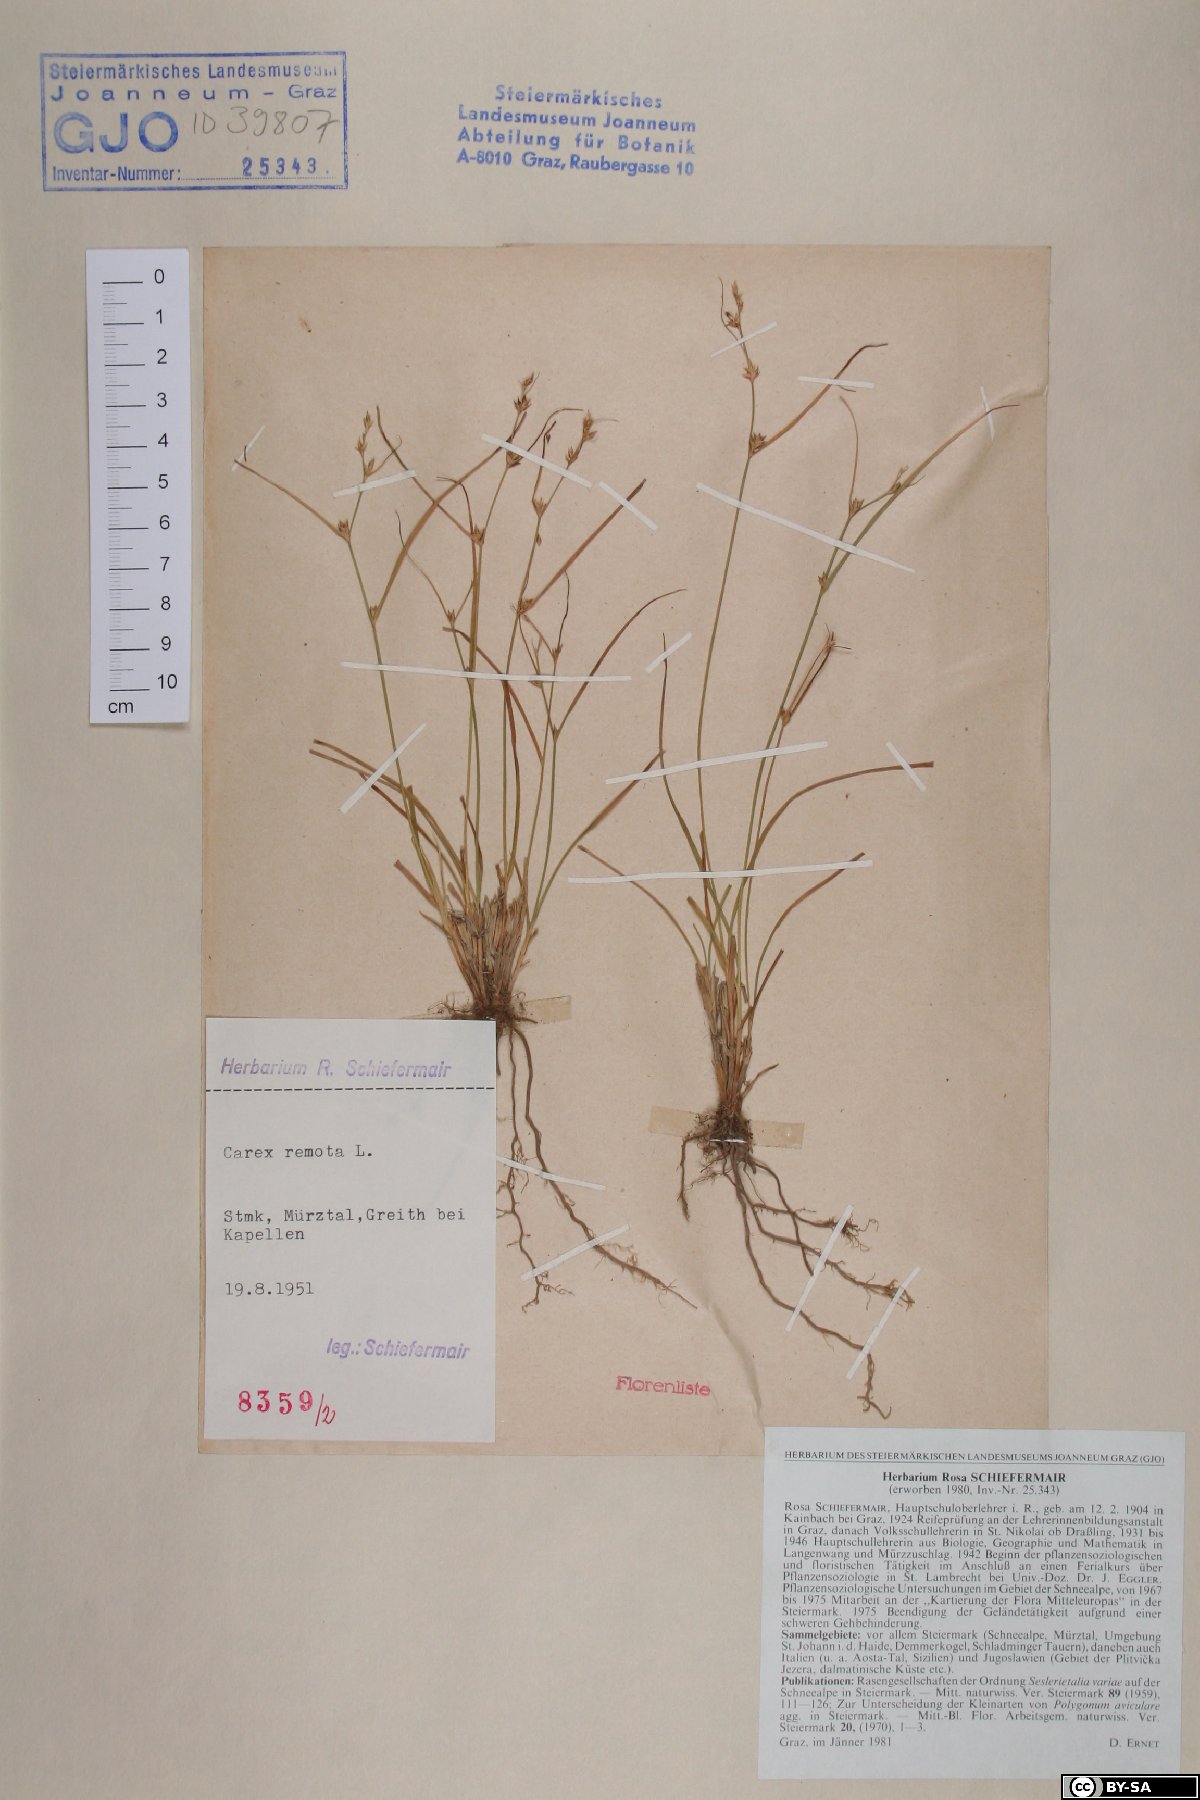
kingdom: Plantae
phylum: Tracheophyta
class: Liliopsida
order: Poales
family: Cyperaceae
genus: Carex
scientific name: Carex remota
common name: Remote sedge
